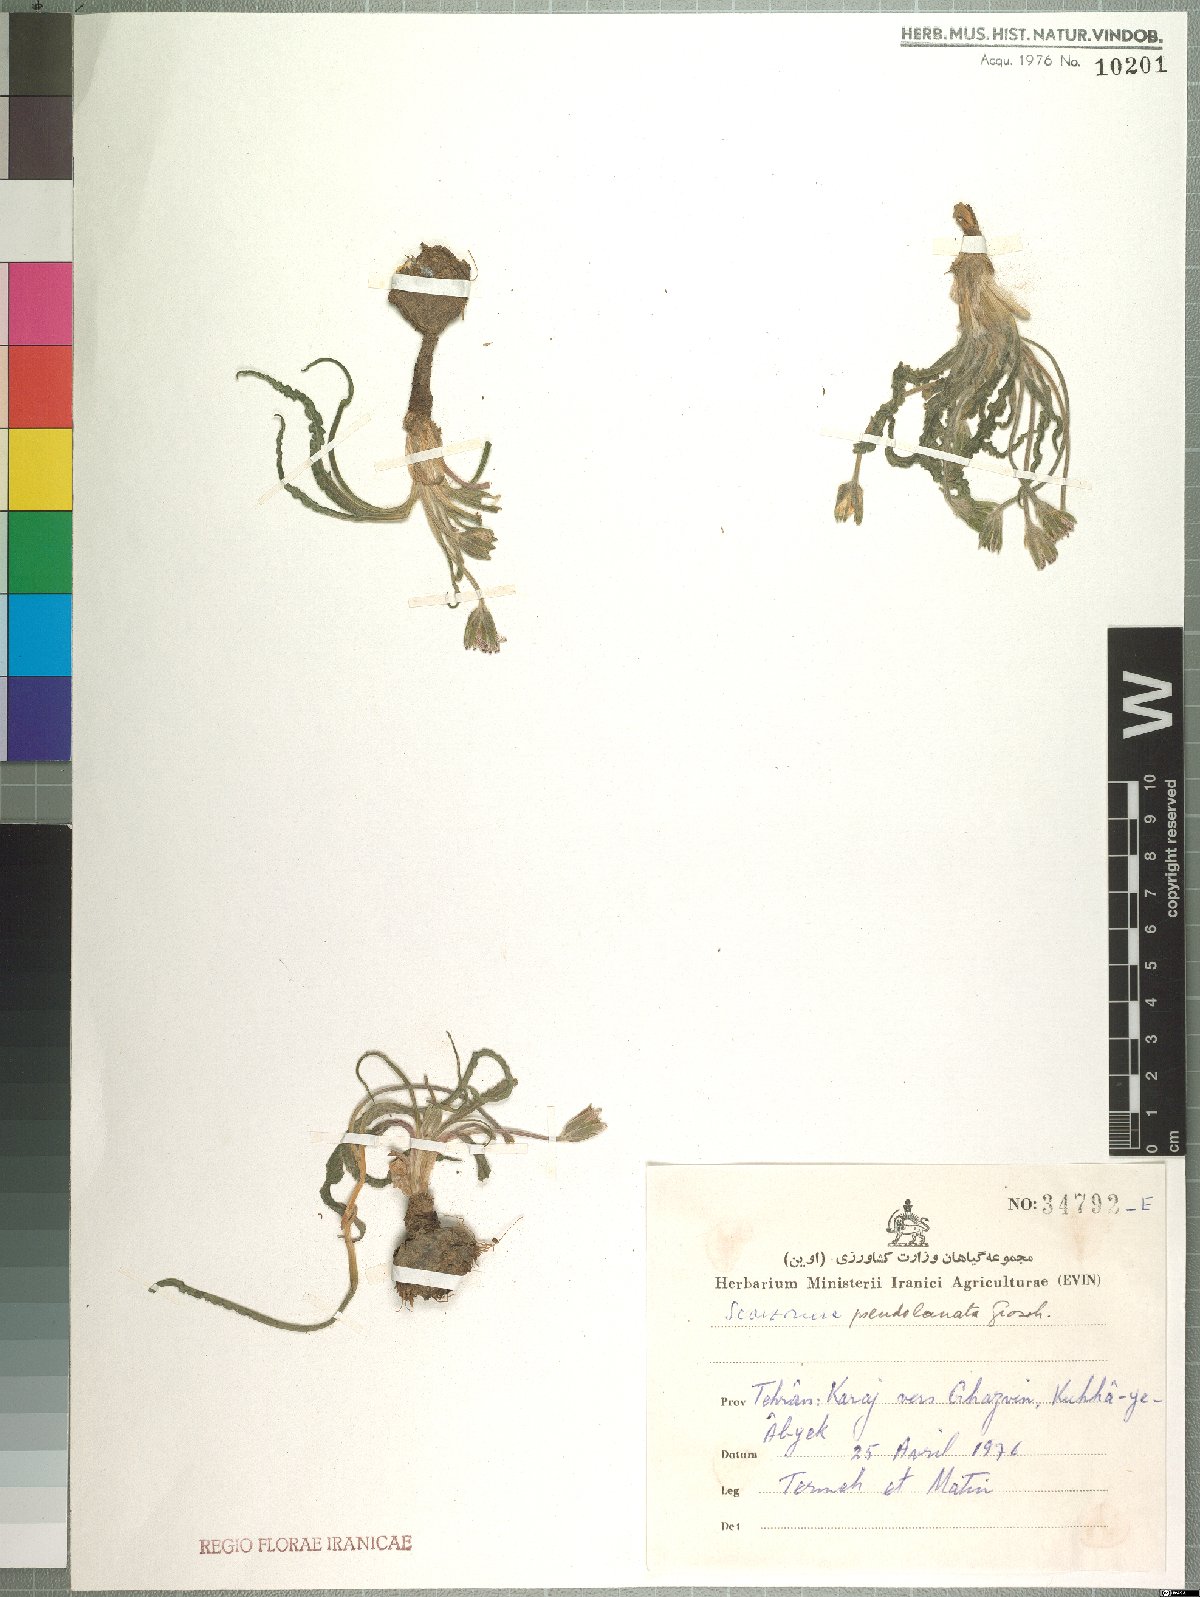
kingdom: Plantae
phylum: Tracheophyta
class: Magnoliopsida
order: Asterales
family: Asteraceae
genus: Bocquetia
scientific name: Bocquetia pseudolanata
